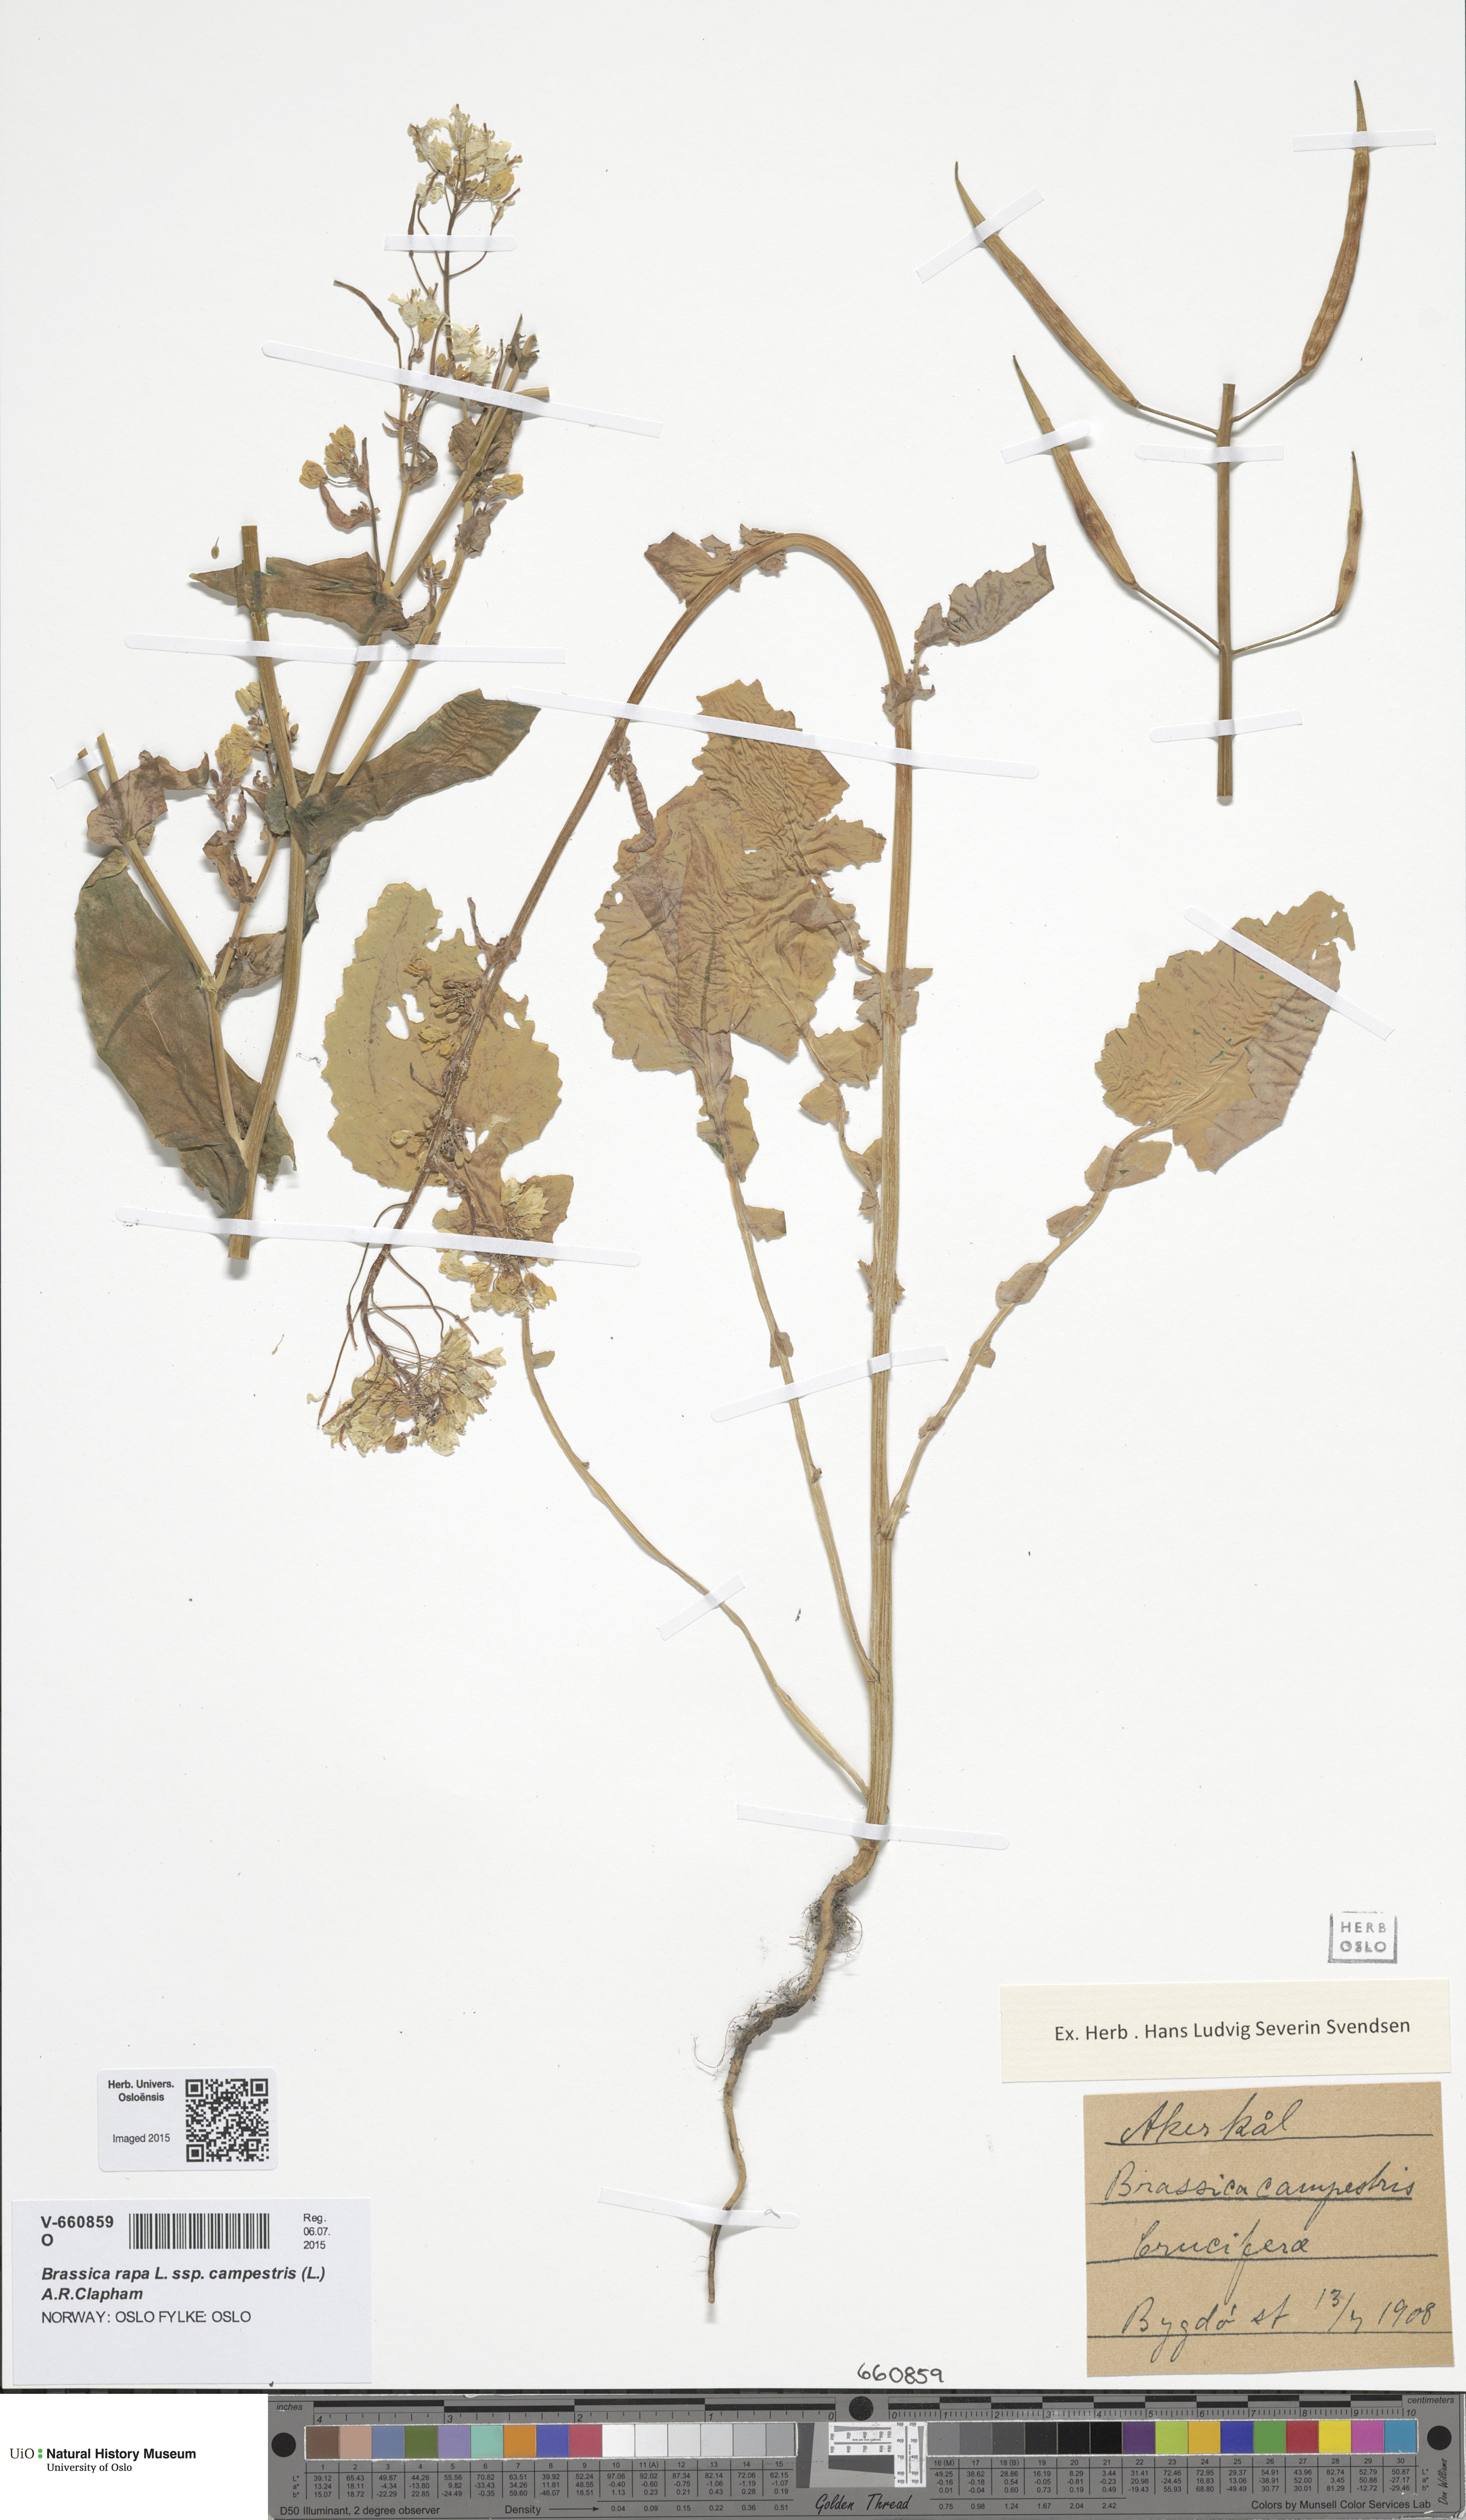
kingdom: Plantae
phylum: Tracheophyta
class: Magnoliopsida
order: Brassicales
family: Brassicaceae
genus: Brassica
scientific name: Brassica rapa
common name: Field mustard
